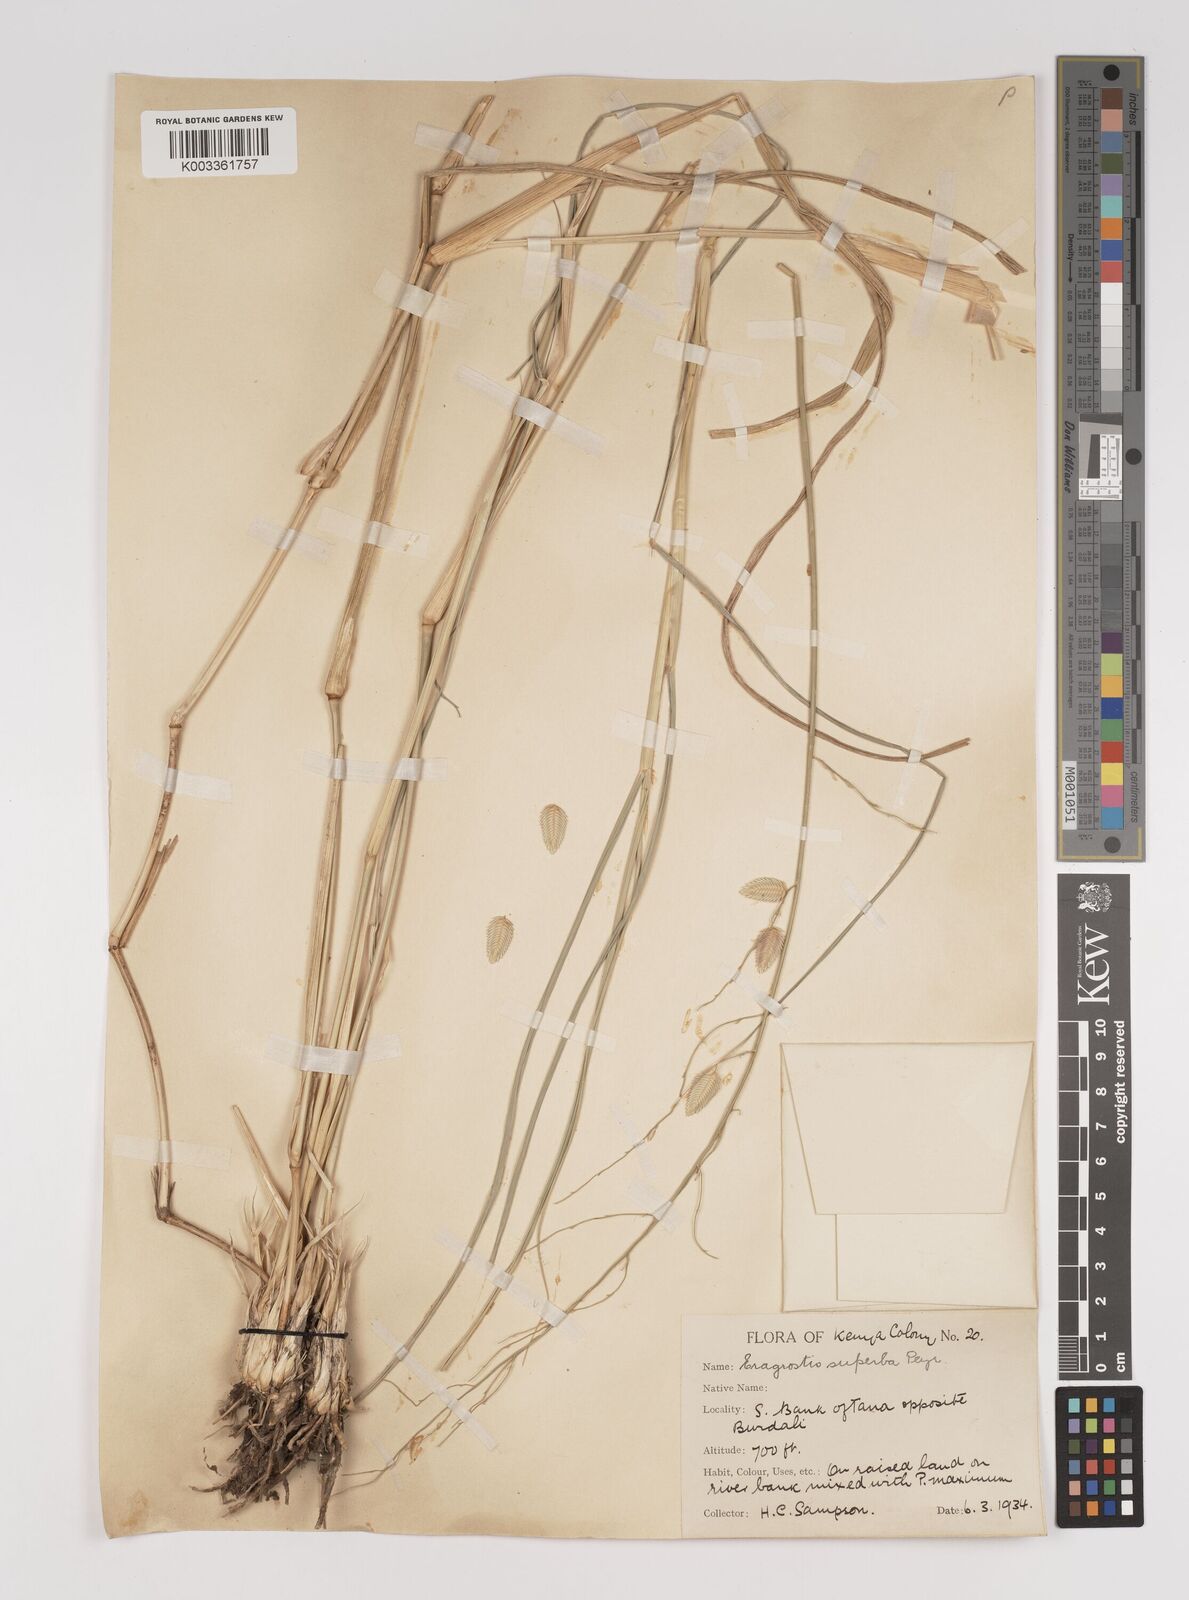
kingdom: Plantae
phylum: Tracheophyta
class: Liliopsida
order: Poales
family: Poaceae
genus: Eragrostis
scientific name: Eragrostis superba
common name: Wilman lovegrass
